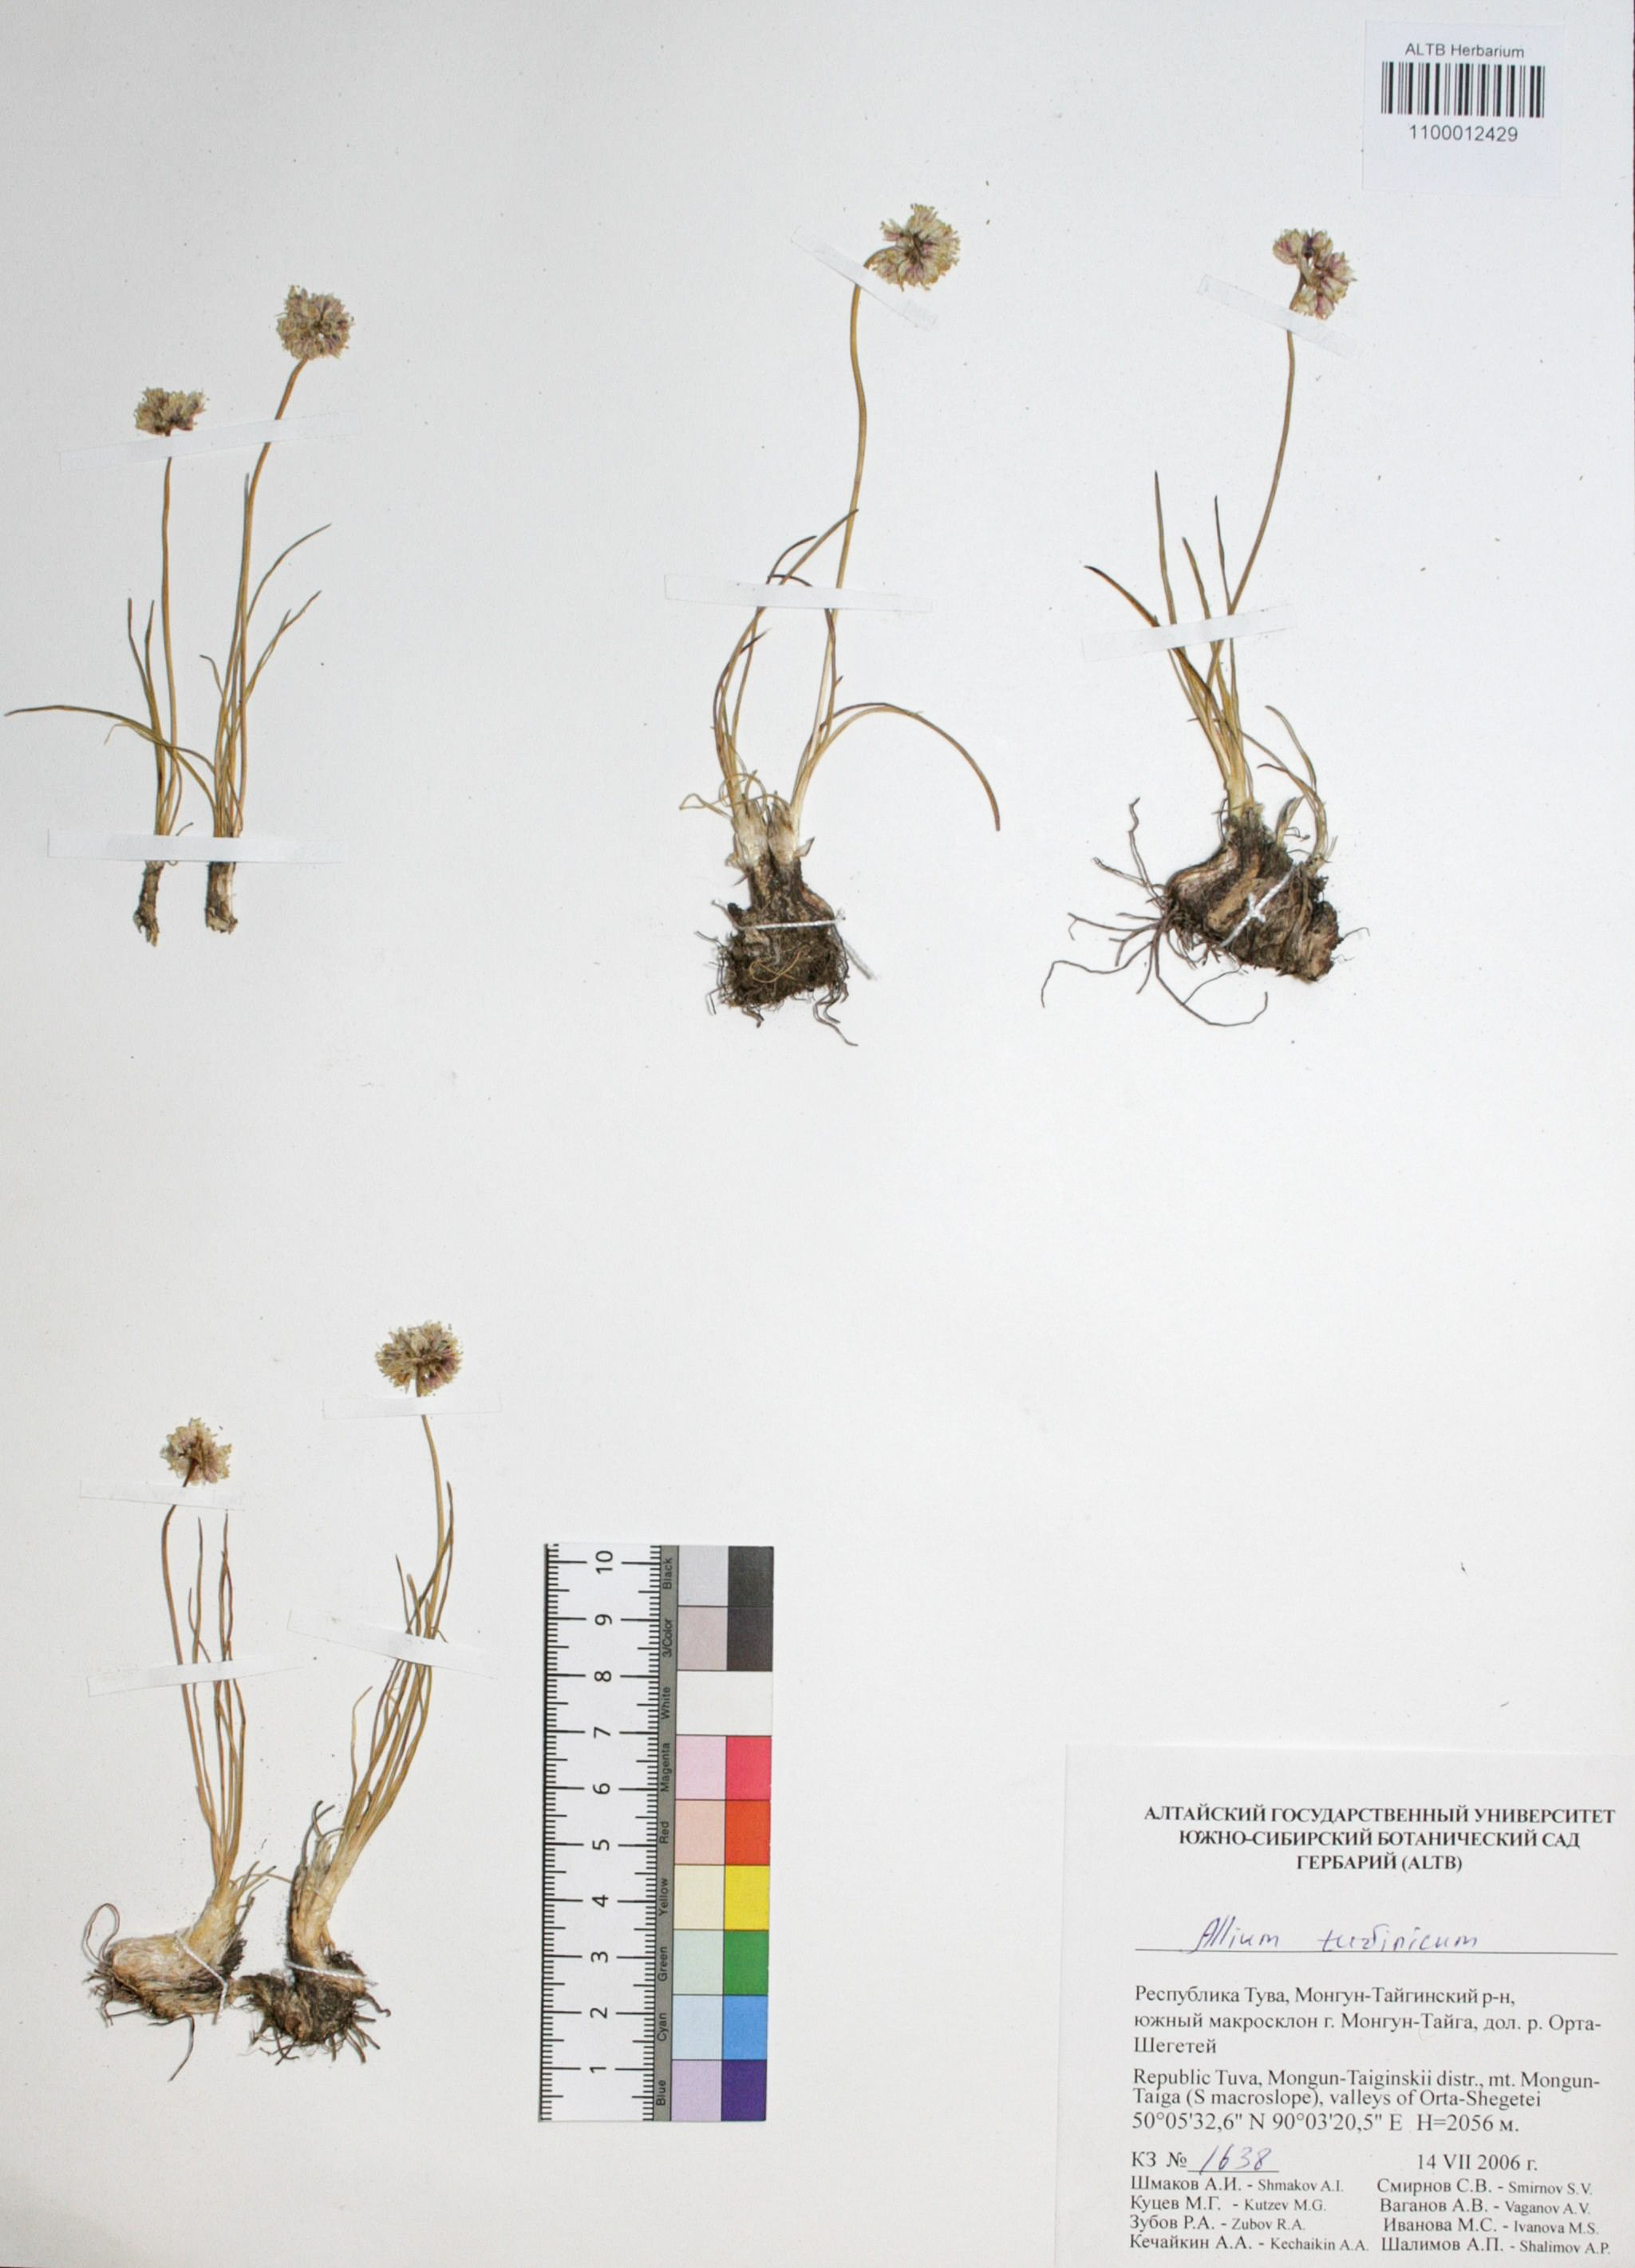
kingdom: Plantae
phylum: Tracheophyta
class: Liliopsida
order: Asparagales
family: Amaryllidaceae
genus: Allium
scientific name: Allium tuvinicum
